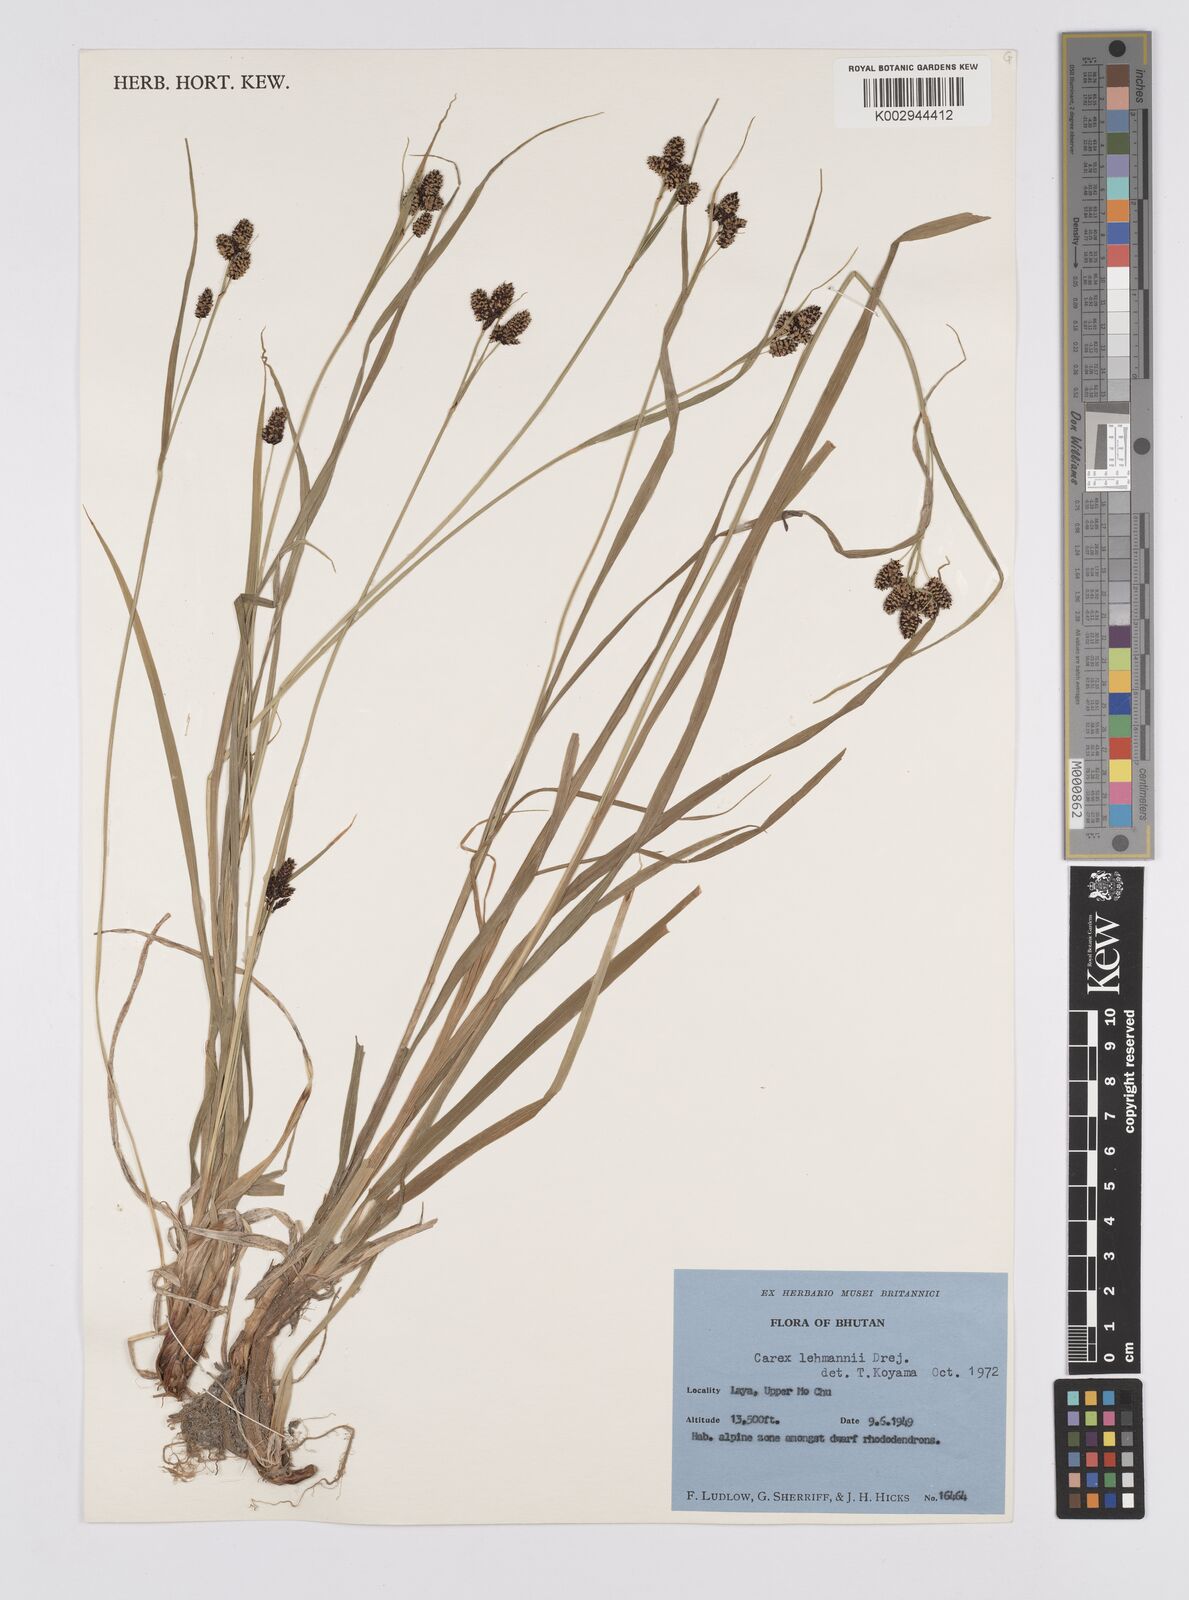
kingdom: Plantae
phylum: Tracheophyta
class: Liliopsida
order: Poales
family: Cyperaceae
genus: Carex
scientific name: Carex lehmannii
